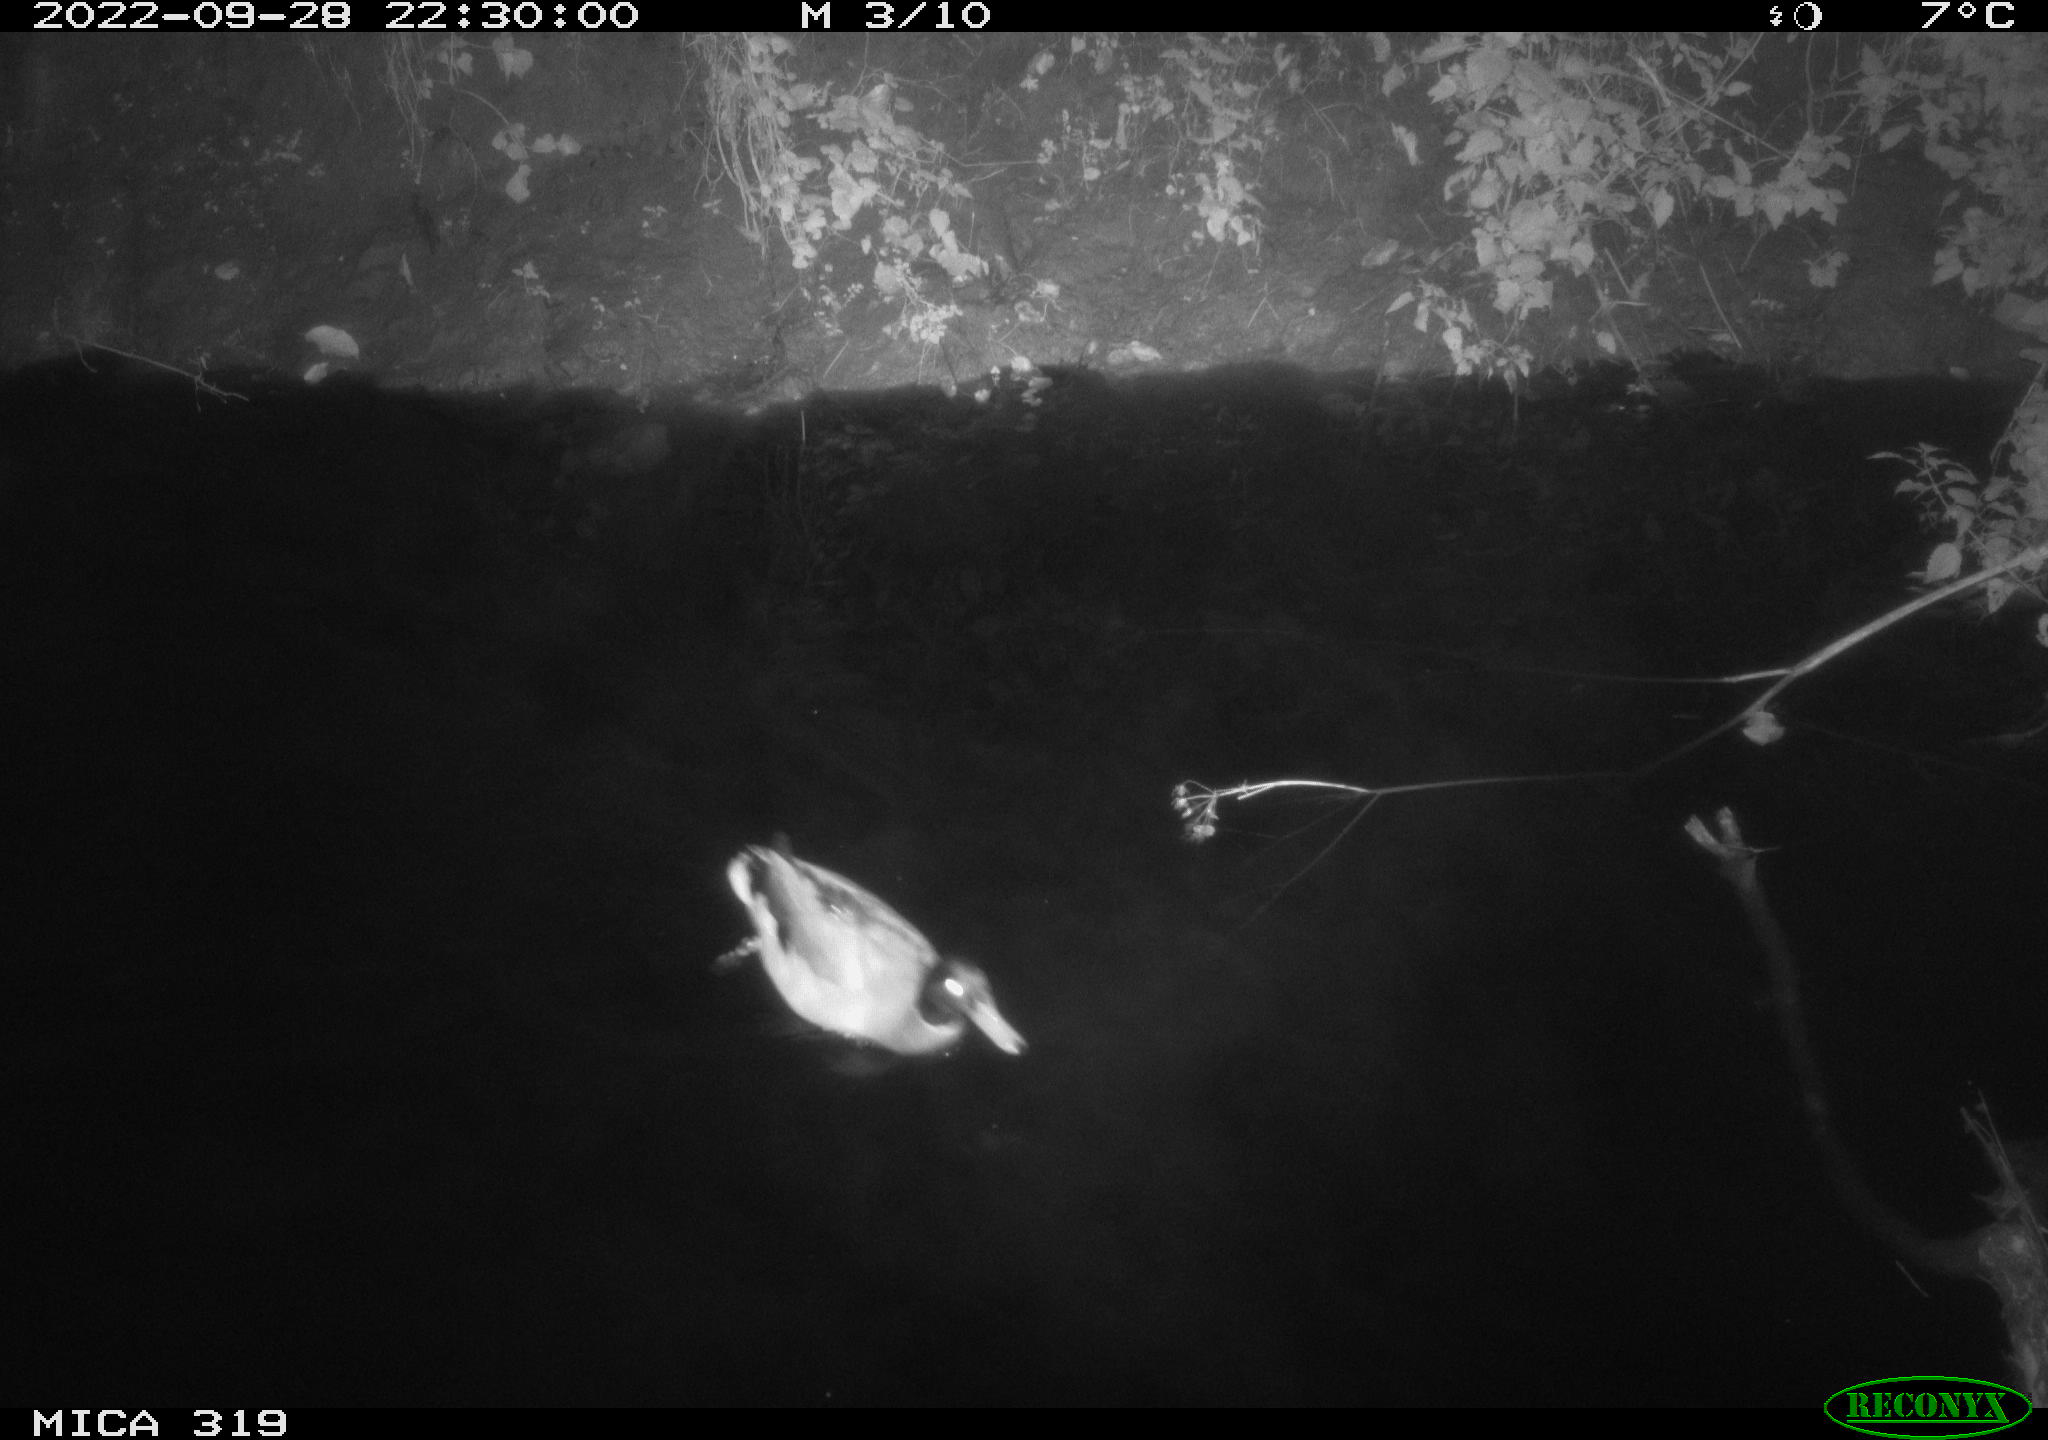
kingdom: Animalia
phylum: Chordata
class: Aves
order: Anseriformes
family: Anatidae
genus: Anas
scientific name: Anas
